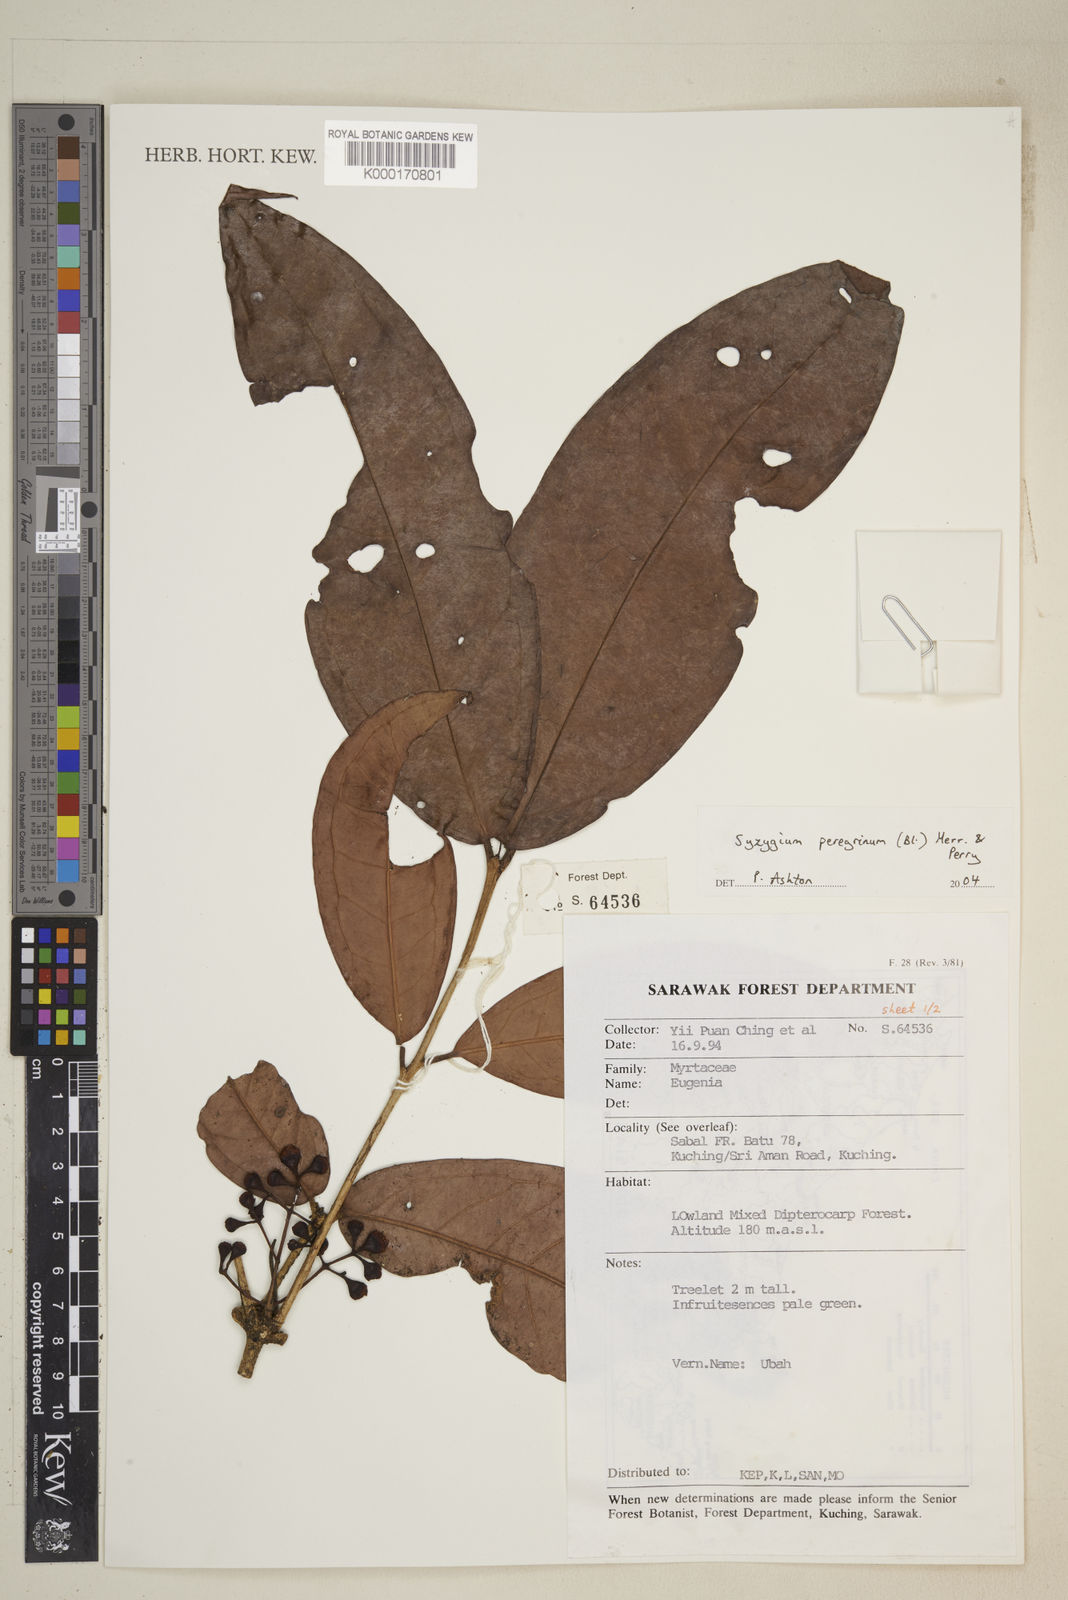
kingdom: Plantae
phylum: Tracheophyta
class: Magnoliopsida
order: Myrtales
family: Myrtaceae
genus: Syzygium
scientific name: Syzygium peregrinum
